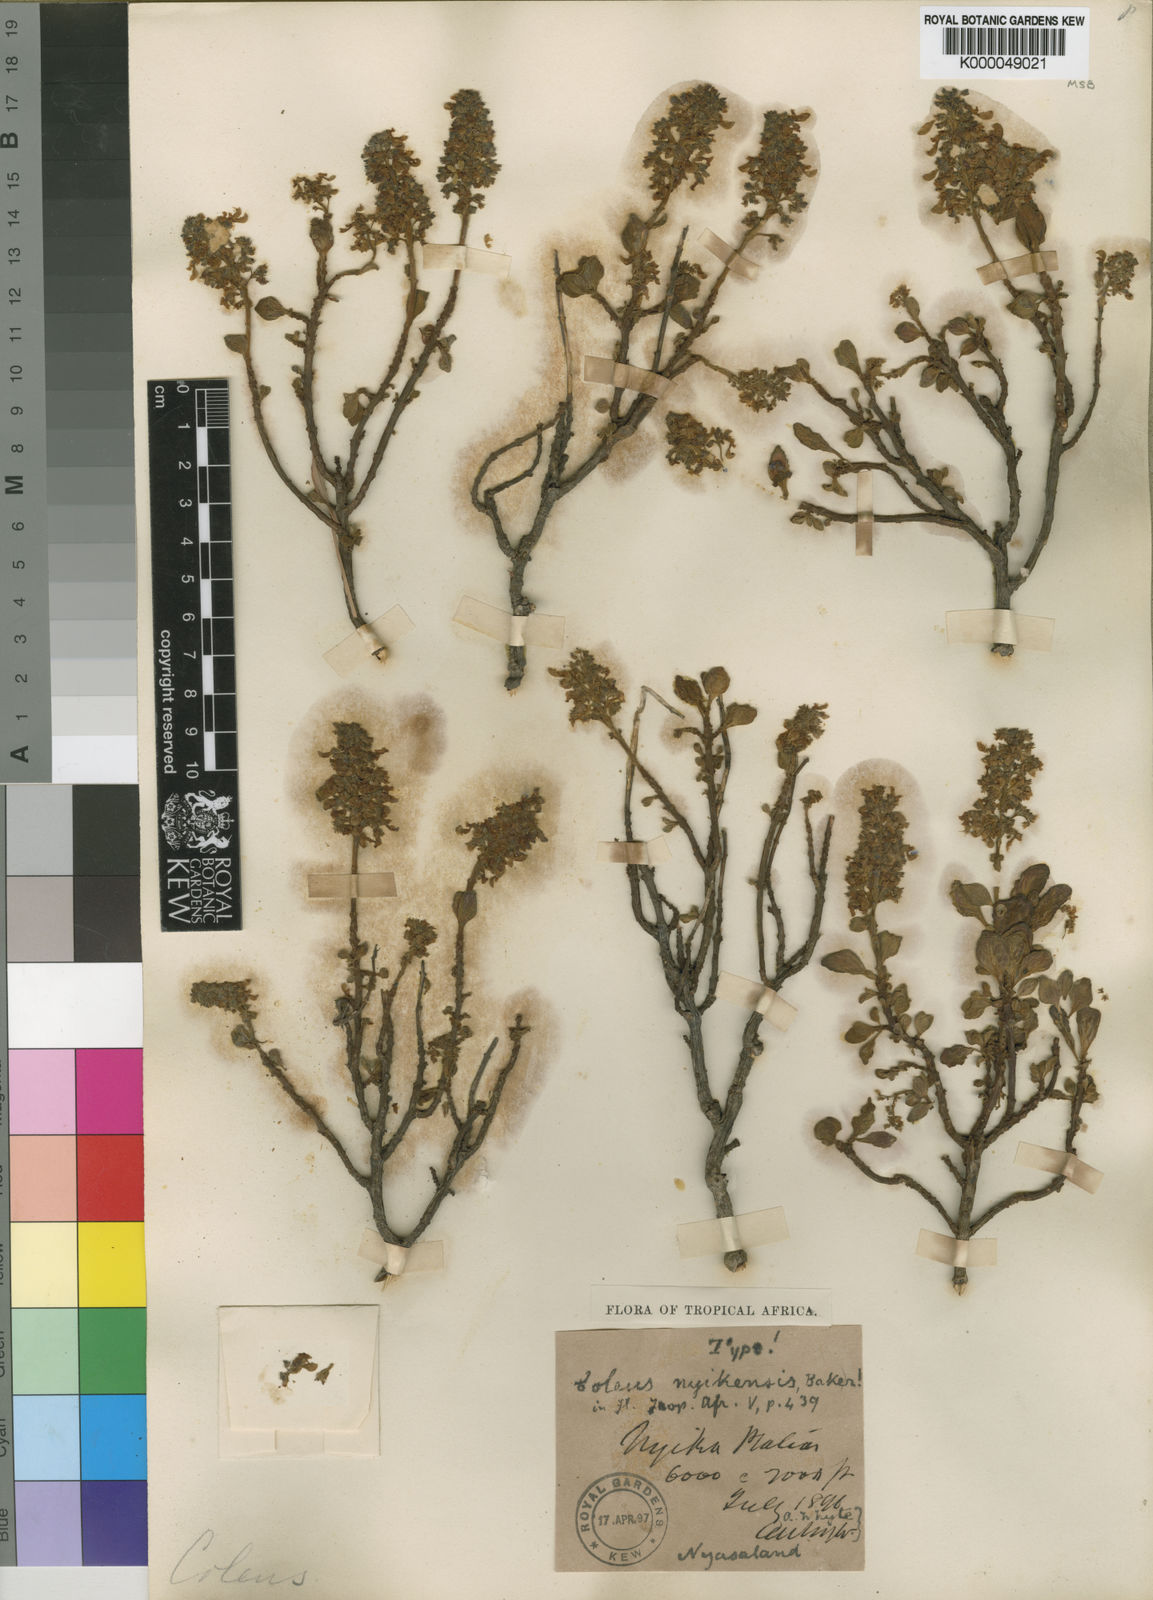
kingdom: Plantae
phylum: Tracheophyta
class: Magnoliopsida
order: Lamiales
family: Lamiaceae
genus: Coleus
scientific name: Coleus nyikensis
